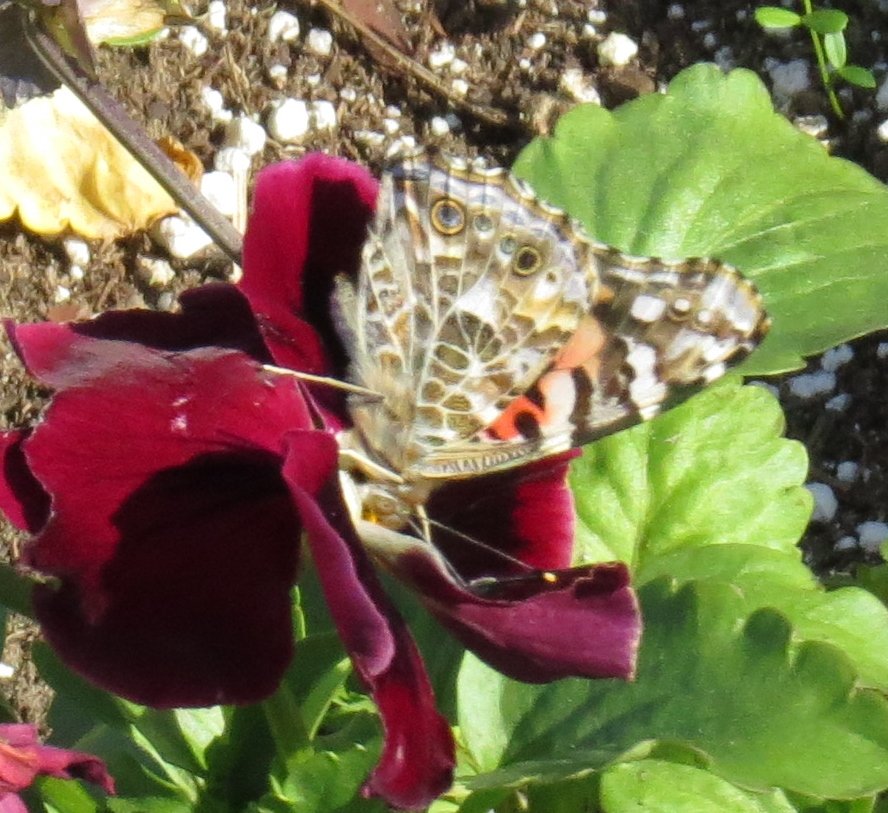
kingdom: Animalia
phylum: Arthropoda
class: Insecta
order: Lepidoptera
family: Nymphalidae
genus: Vanessa
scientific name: Vanessa cardui
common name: Painted Lady
